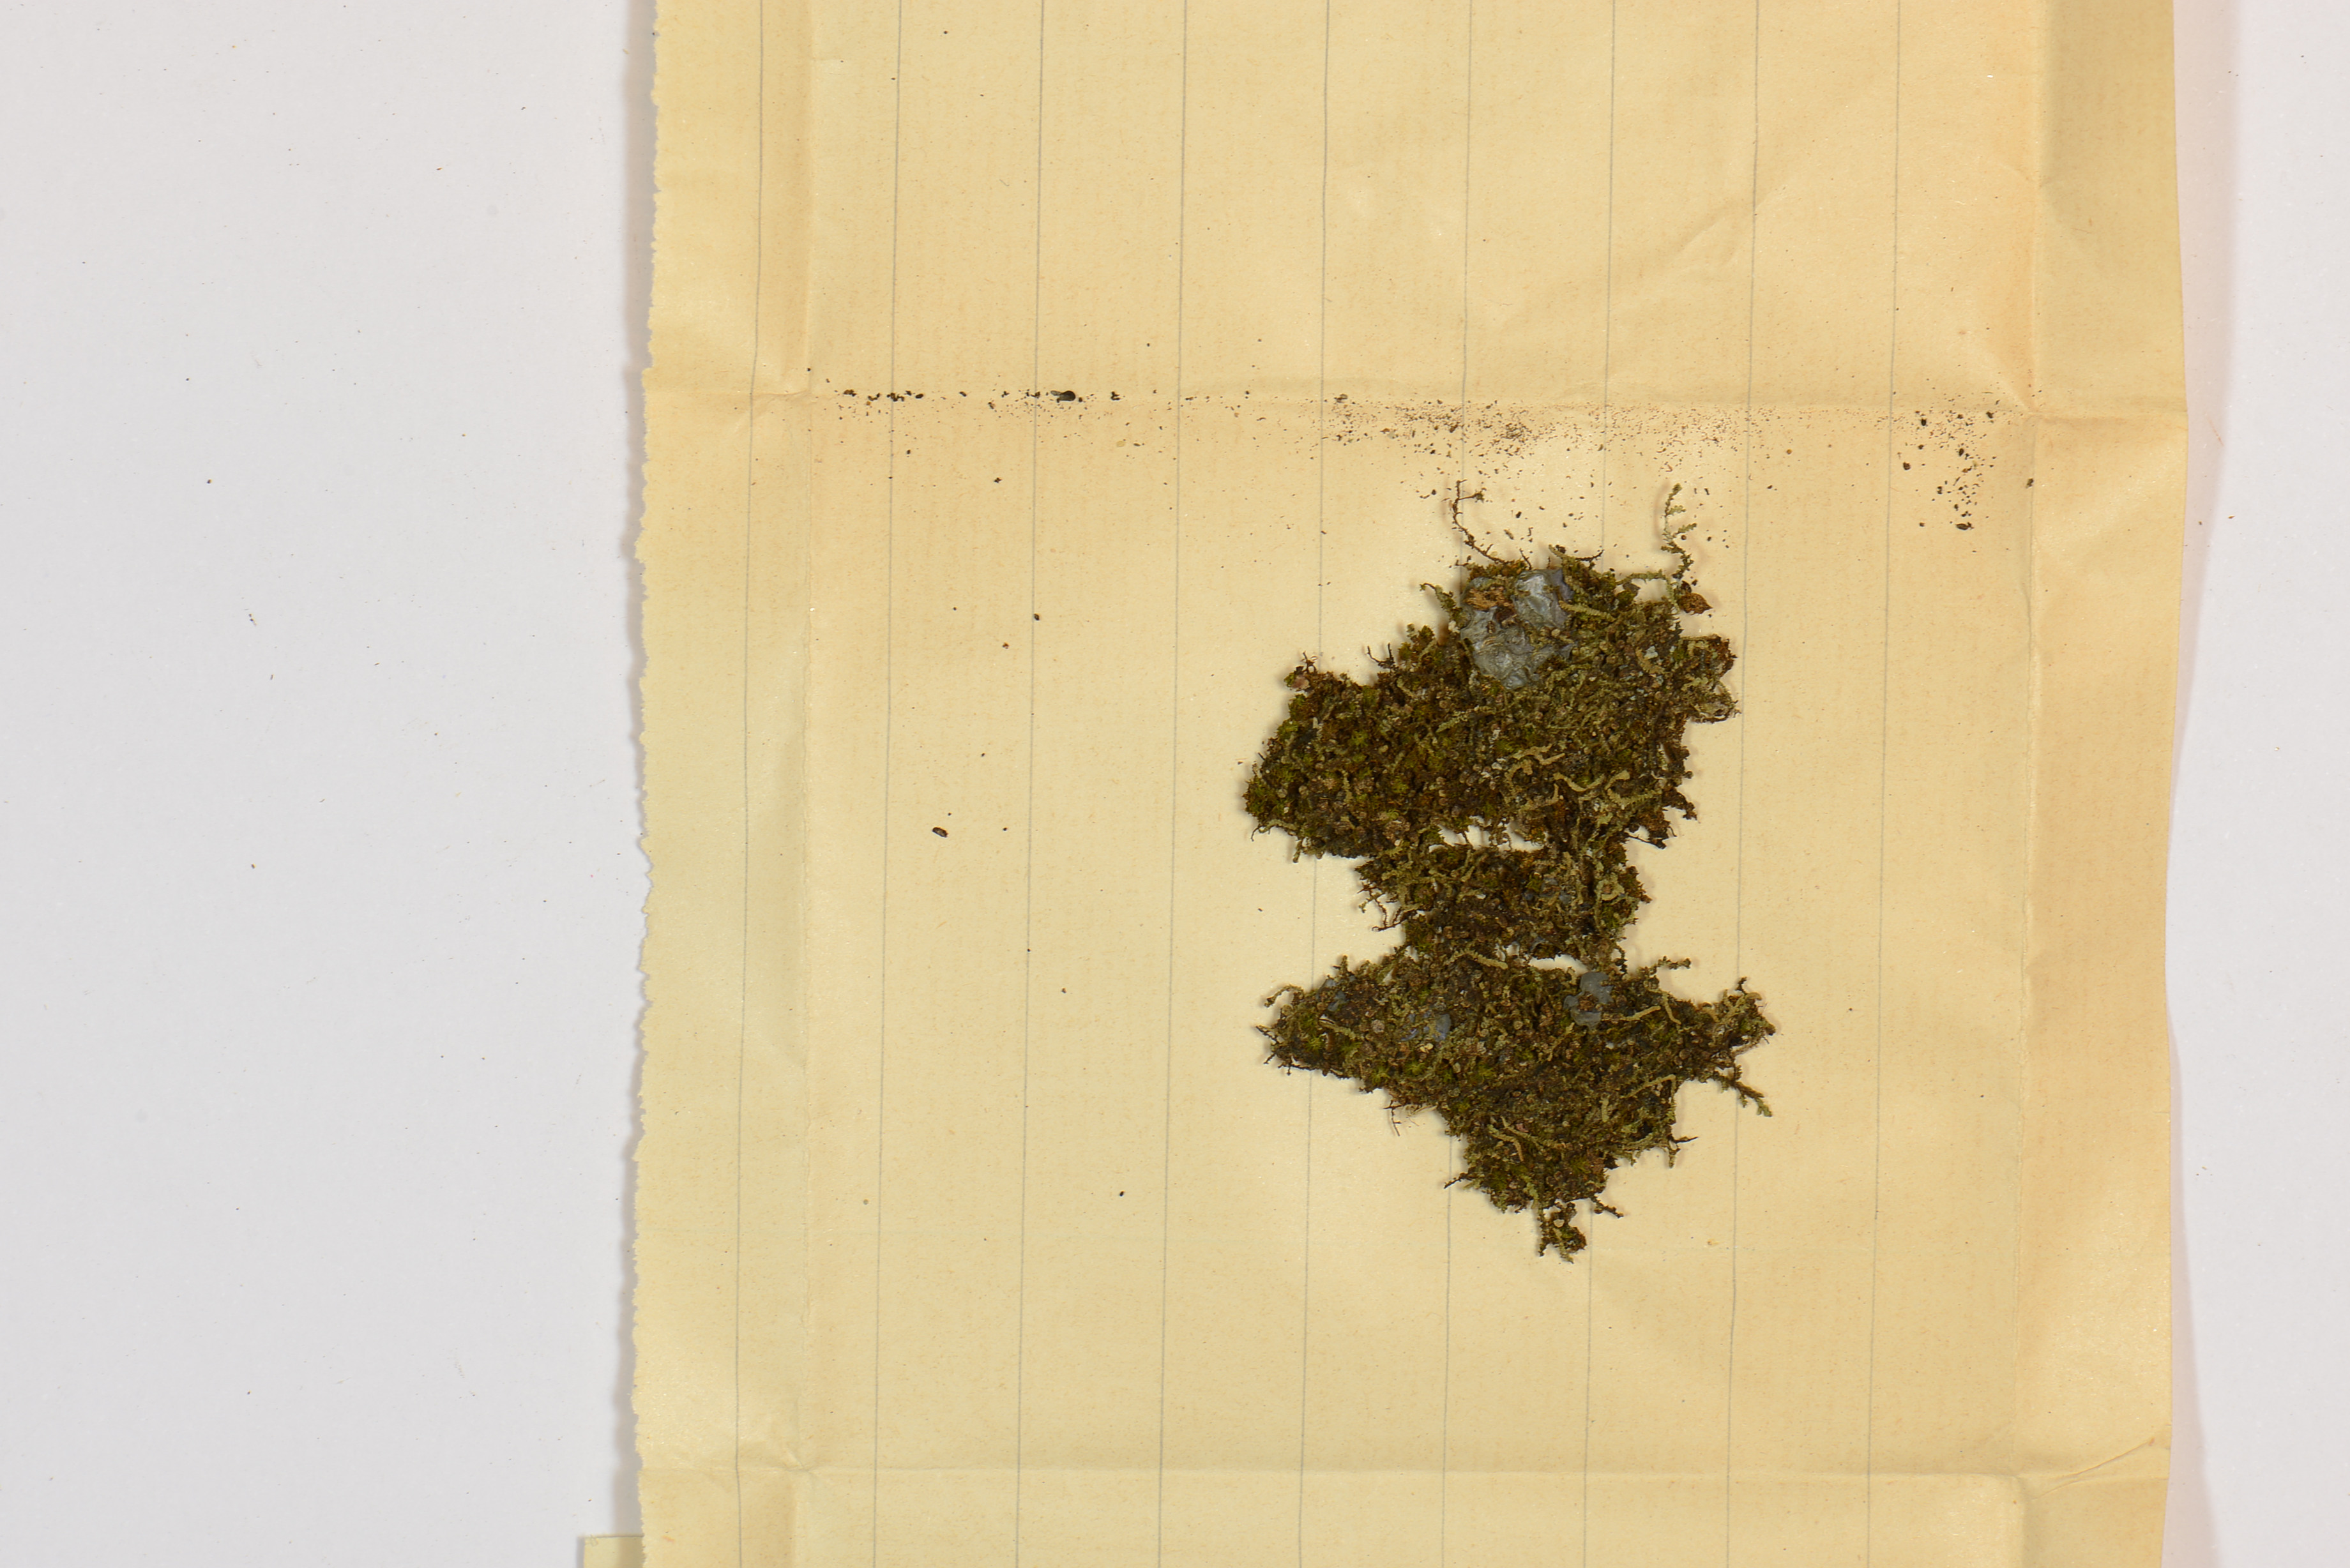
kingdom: Plantae
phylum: Marchantiophyta
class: Jungermanniopsida
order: Porellales
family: Lejeuneaceae
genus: Acrolejeunea
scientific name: Acrolejeunea securifolia
